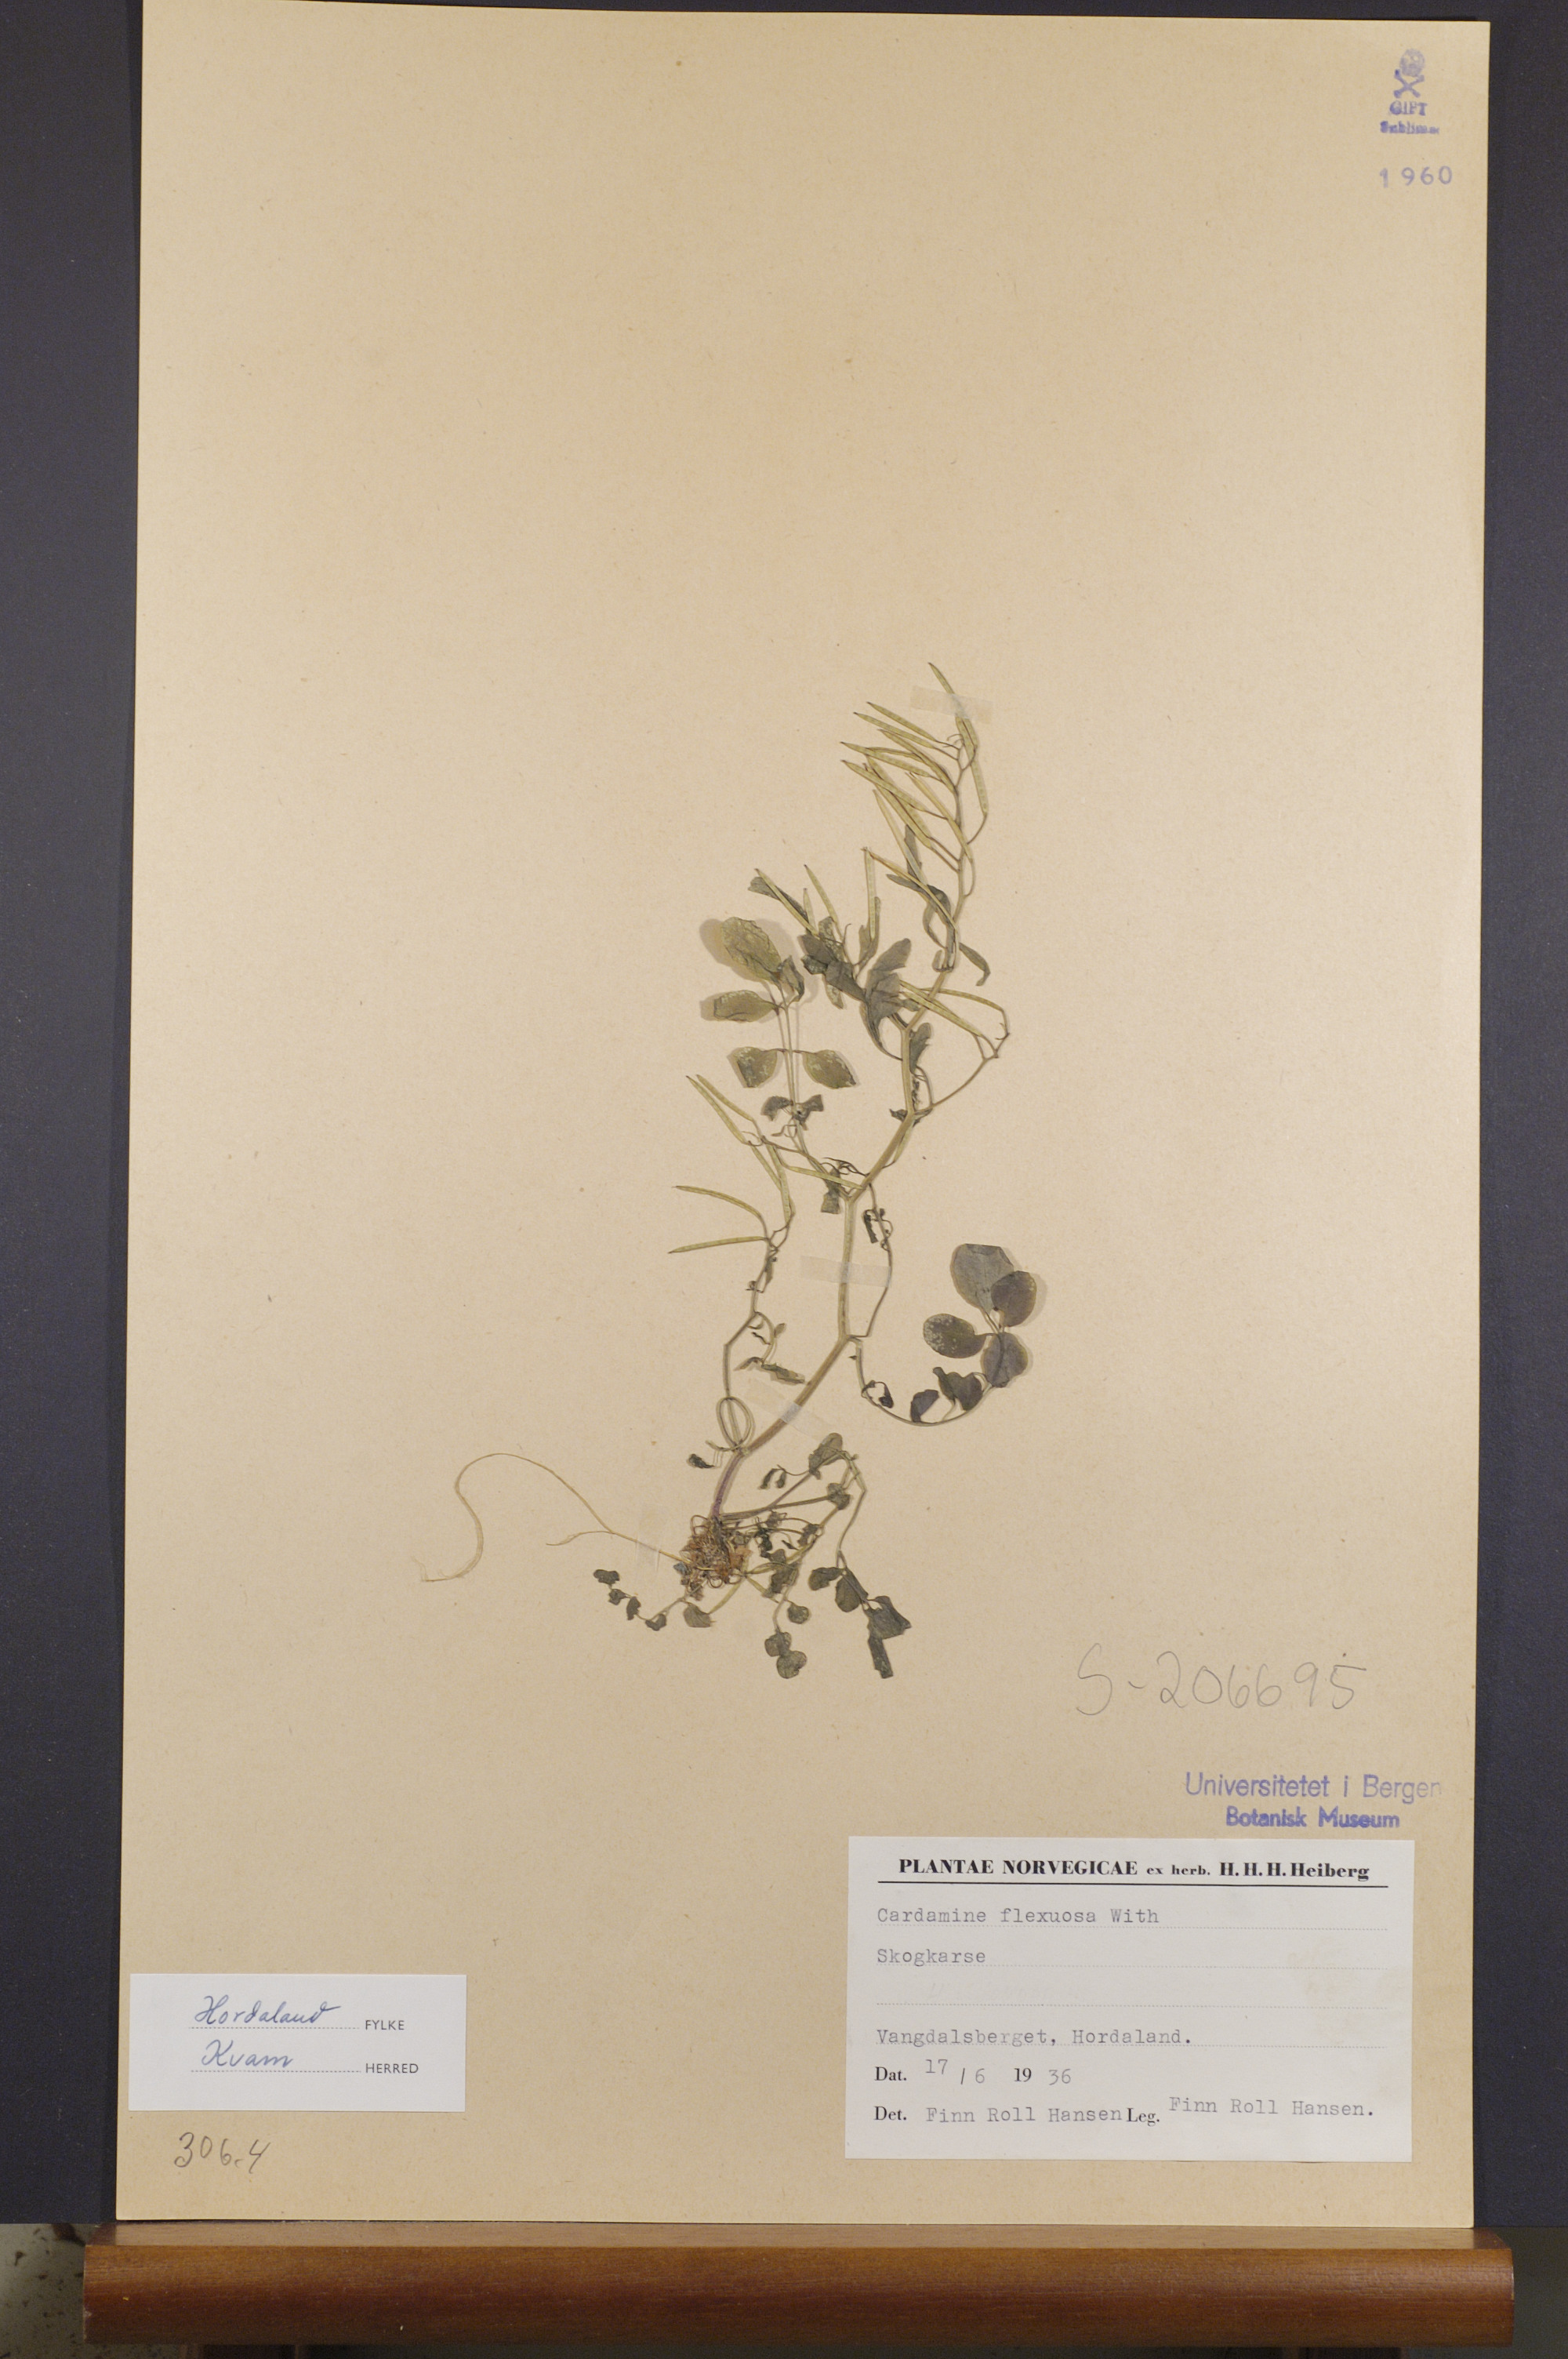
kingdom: Plantae
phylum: Tracheophyta
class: Magnoliopsida
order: Brassicales
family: Brassicaceae
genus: Cardamine
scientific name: Cardamine flexuosa
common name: Woodland bittercress
